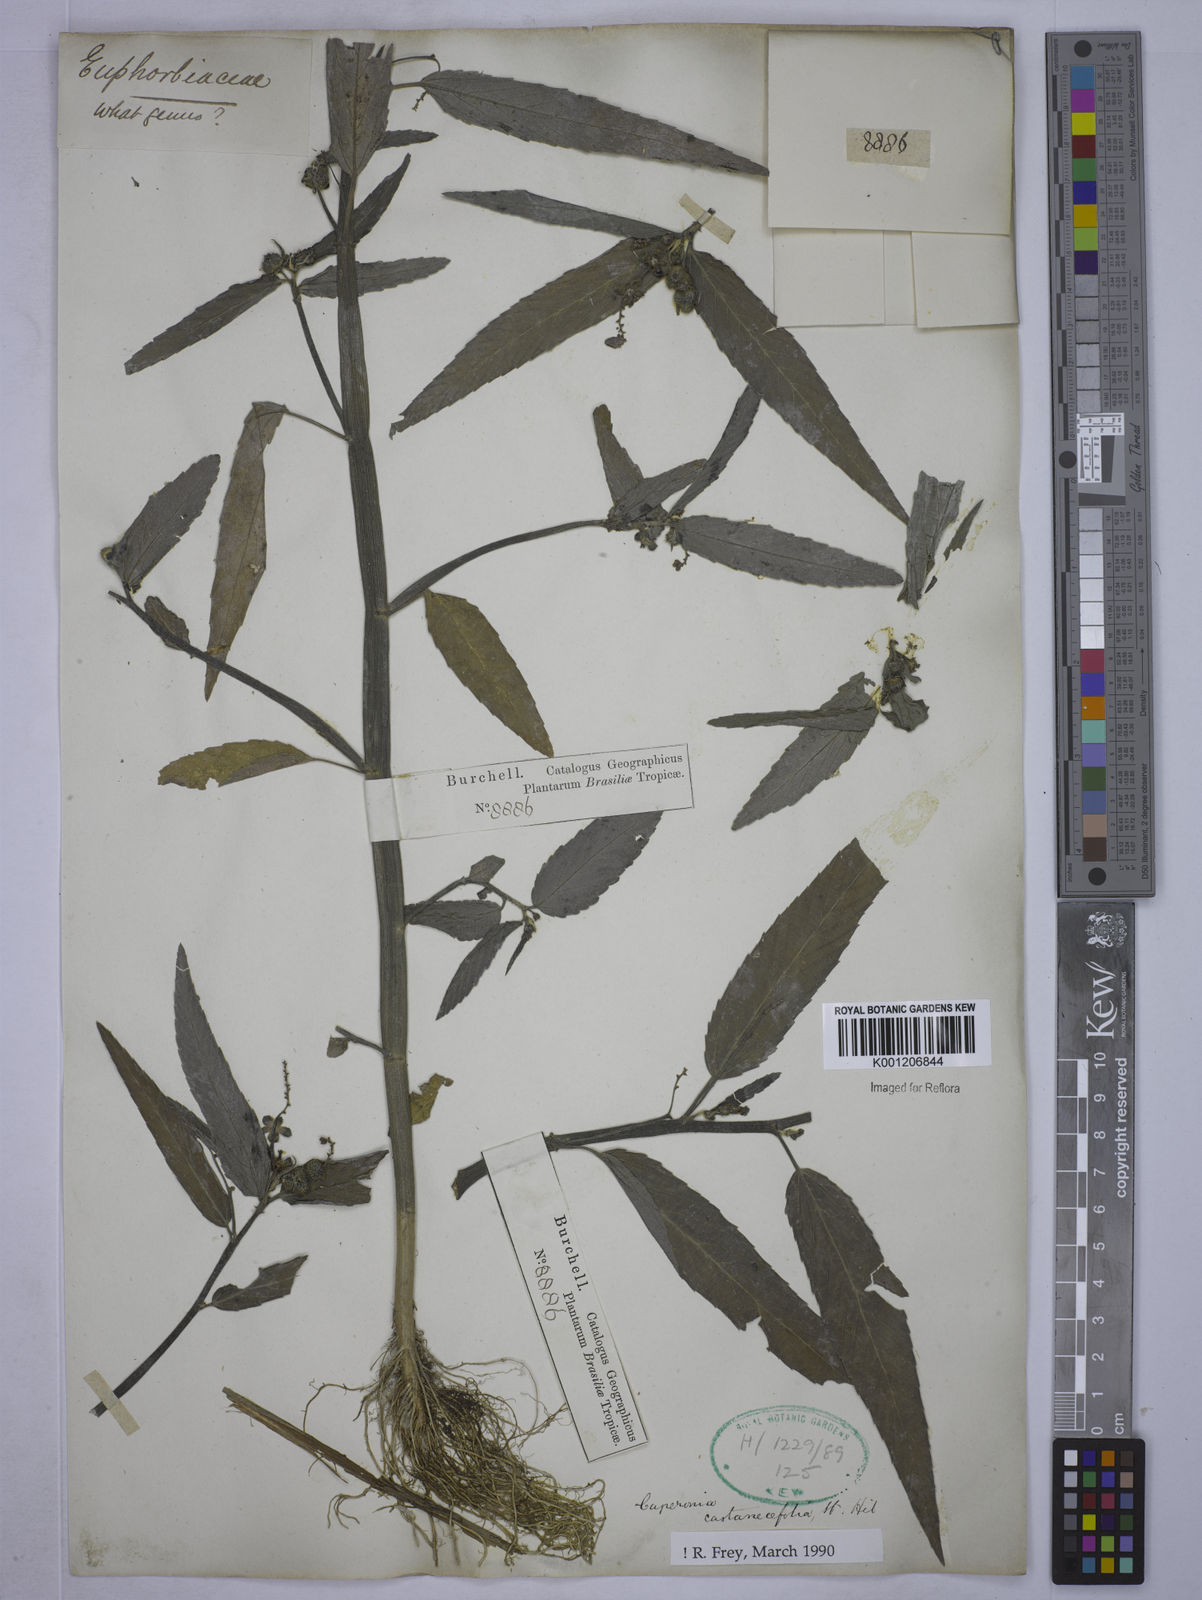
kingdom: Plantae
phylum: Tracheophyta
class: Magnoliopsida
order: Malpighiales
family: Euphorbiaceae
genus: Caperonia
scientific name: Caperonia castaneifolia
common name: Chestnutleaf false croton
